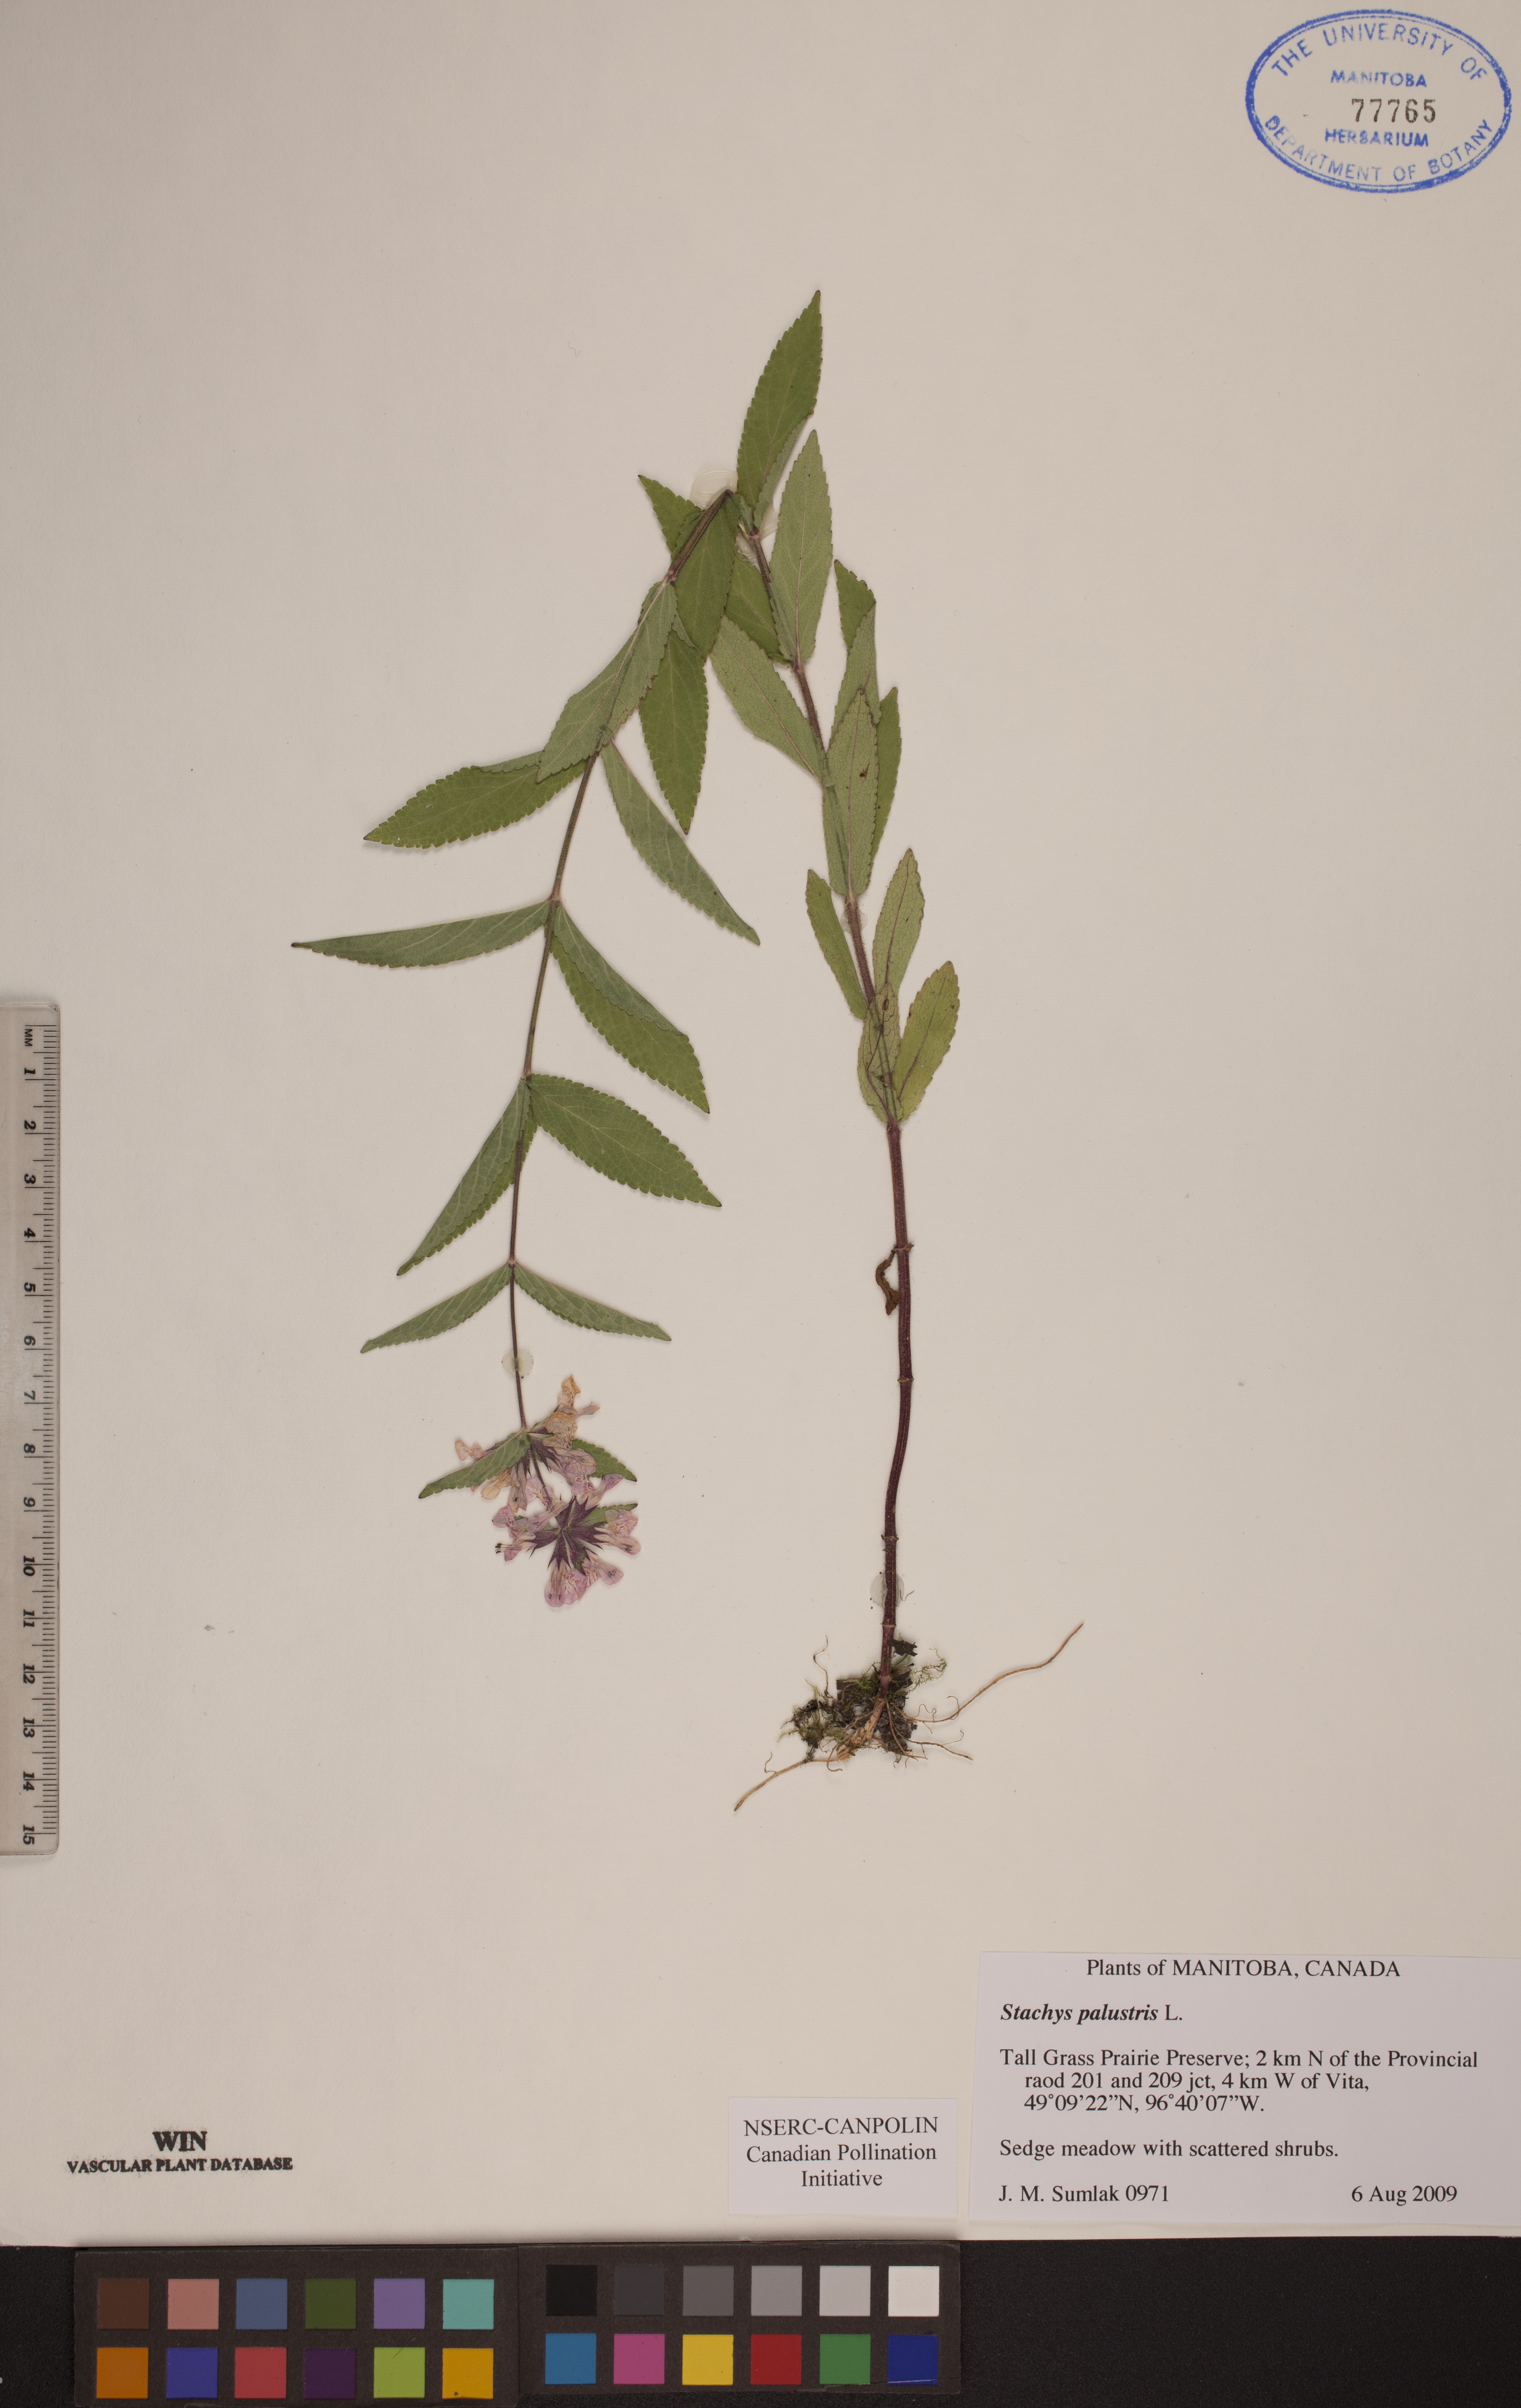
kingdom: Plantae
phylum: Tracheophyta
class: Magnoliopsida
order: Lamiales
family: Lamiaceae
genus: Stachys
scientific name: Stachys palustris
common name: Marsh woundwort
